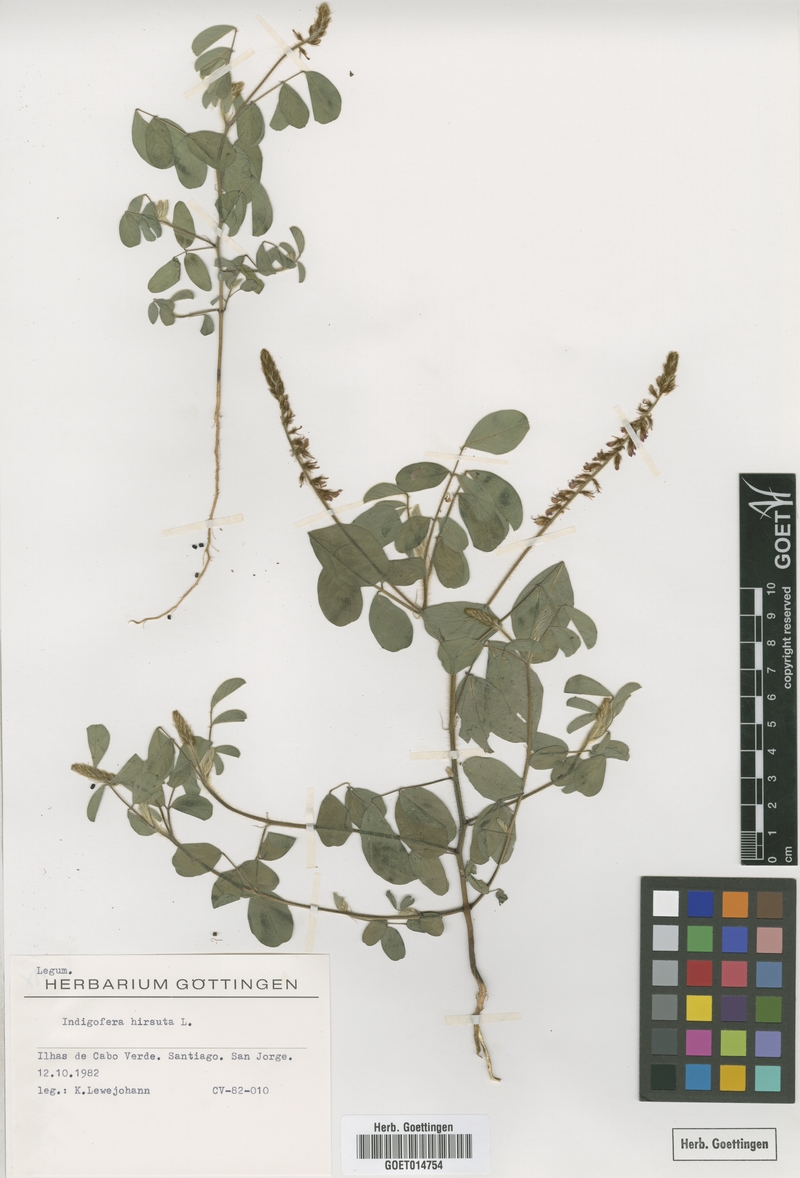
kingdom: Plantae
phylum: Tracheophyta
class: Magnoliopsida
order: Fabales
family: Fabaceae
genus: Indigofera
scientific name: Indigofera hirsuta
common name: Hairy indigo
